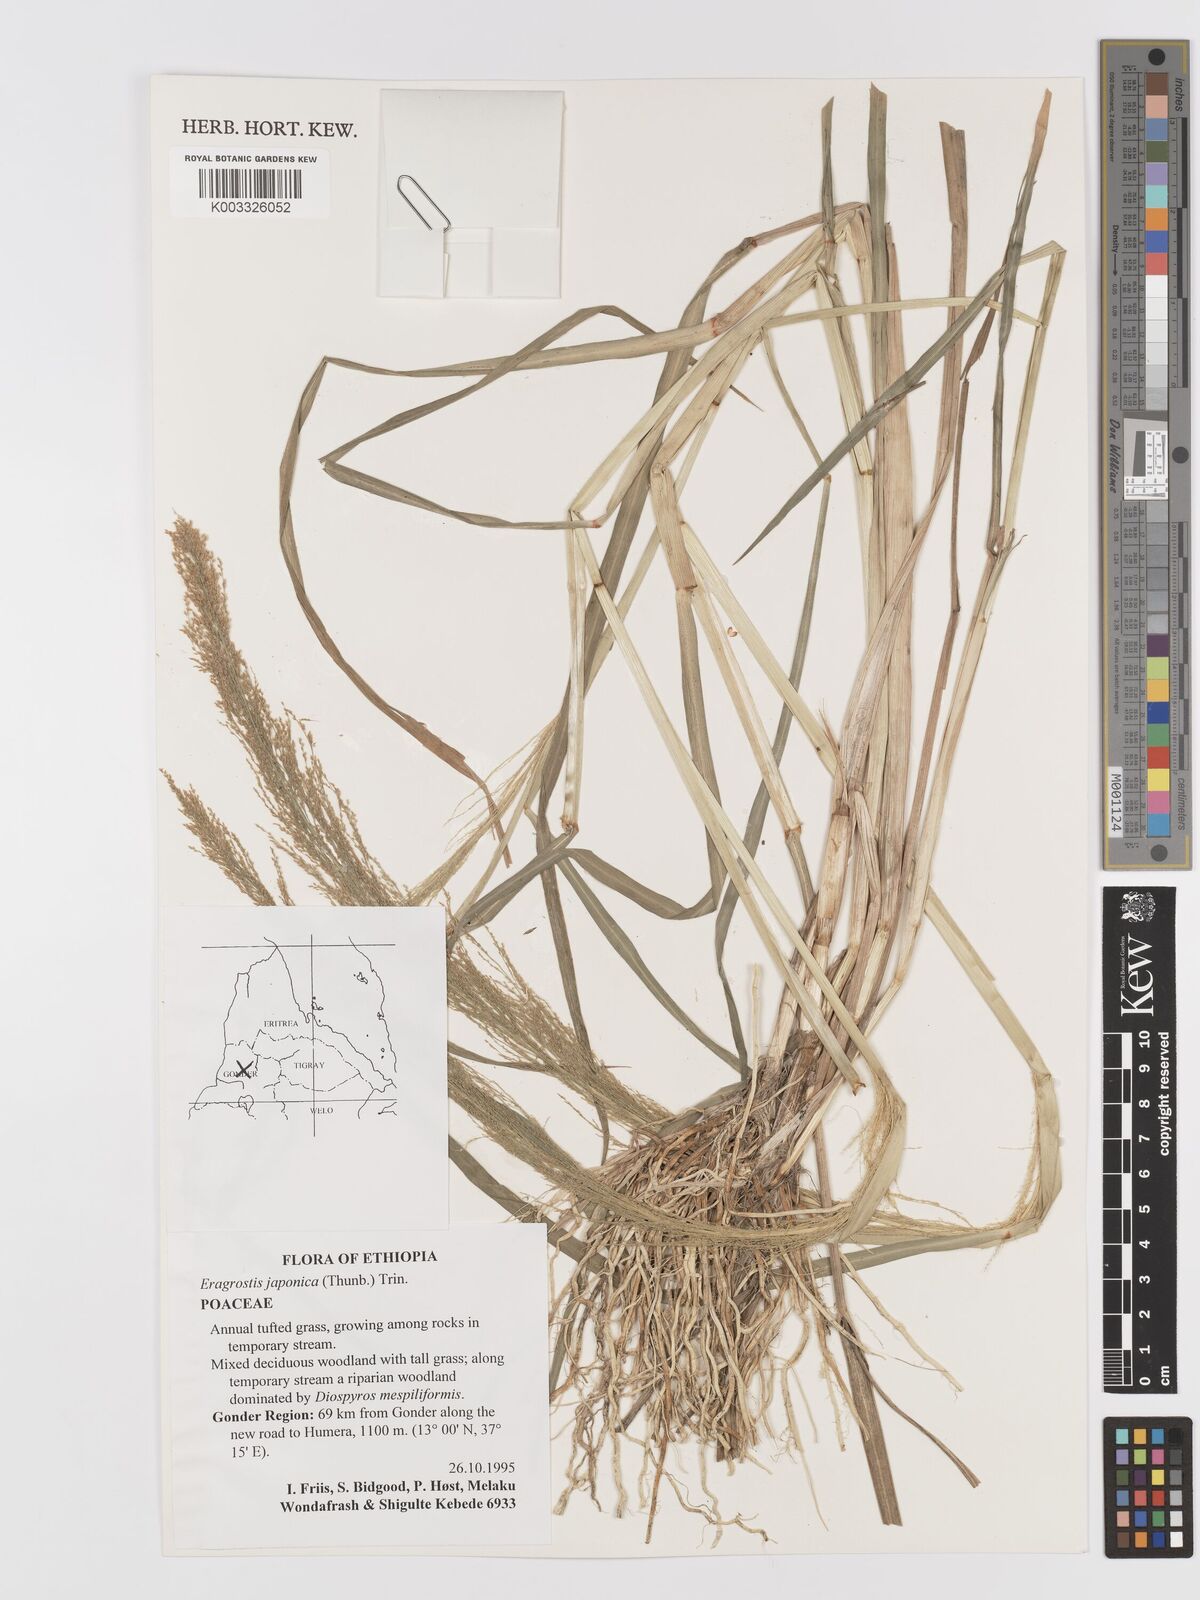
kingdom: Plantae
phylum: Tracheophyta
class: Liliopsida
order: Poales
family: Poaceae
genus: Eragrostis
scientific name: Eragrostis japonica
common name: Pond lovegrass
